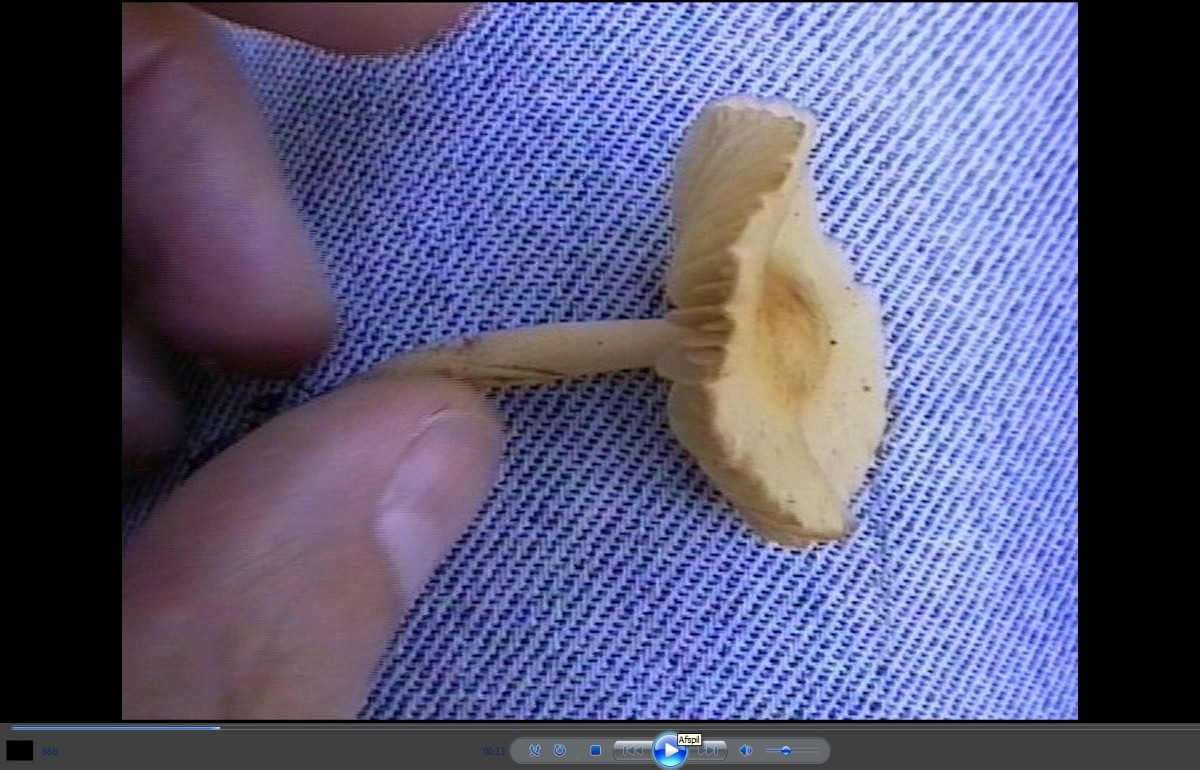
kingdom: Fungi
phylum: Basidiomycota
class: Agaricomycetes
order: Agaricales
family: Marasmiaceae
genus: Marasmius
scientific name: Marasmius oreades
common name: elledans-bruskhat
